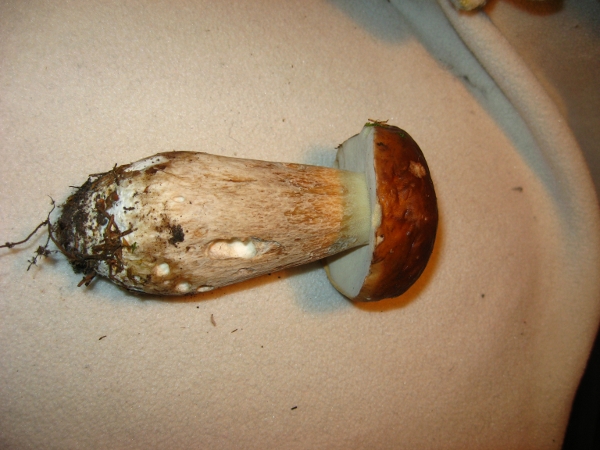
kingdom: Fungi
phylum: Basidiomycota
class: Agaricomycetes
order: Boletales
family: Boletaceae
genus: Boletus
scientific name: Boletus edulis
